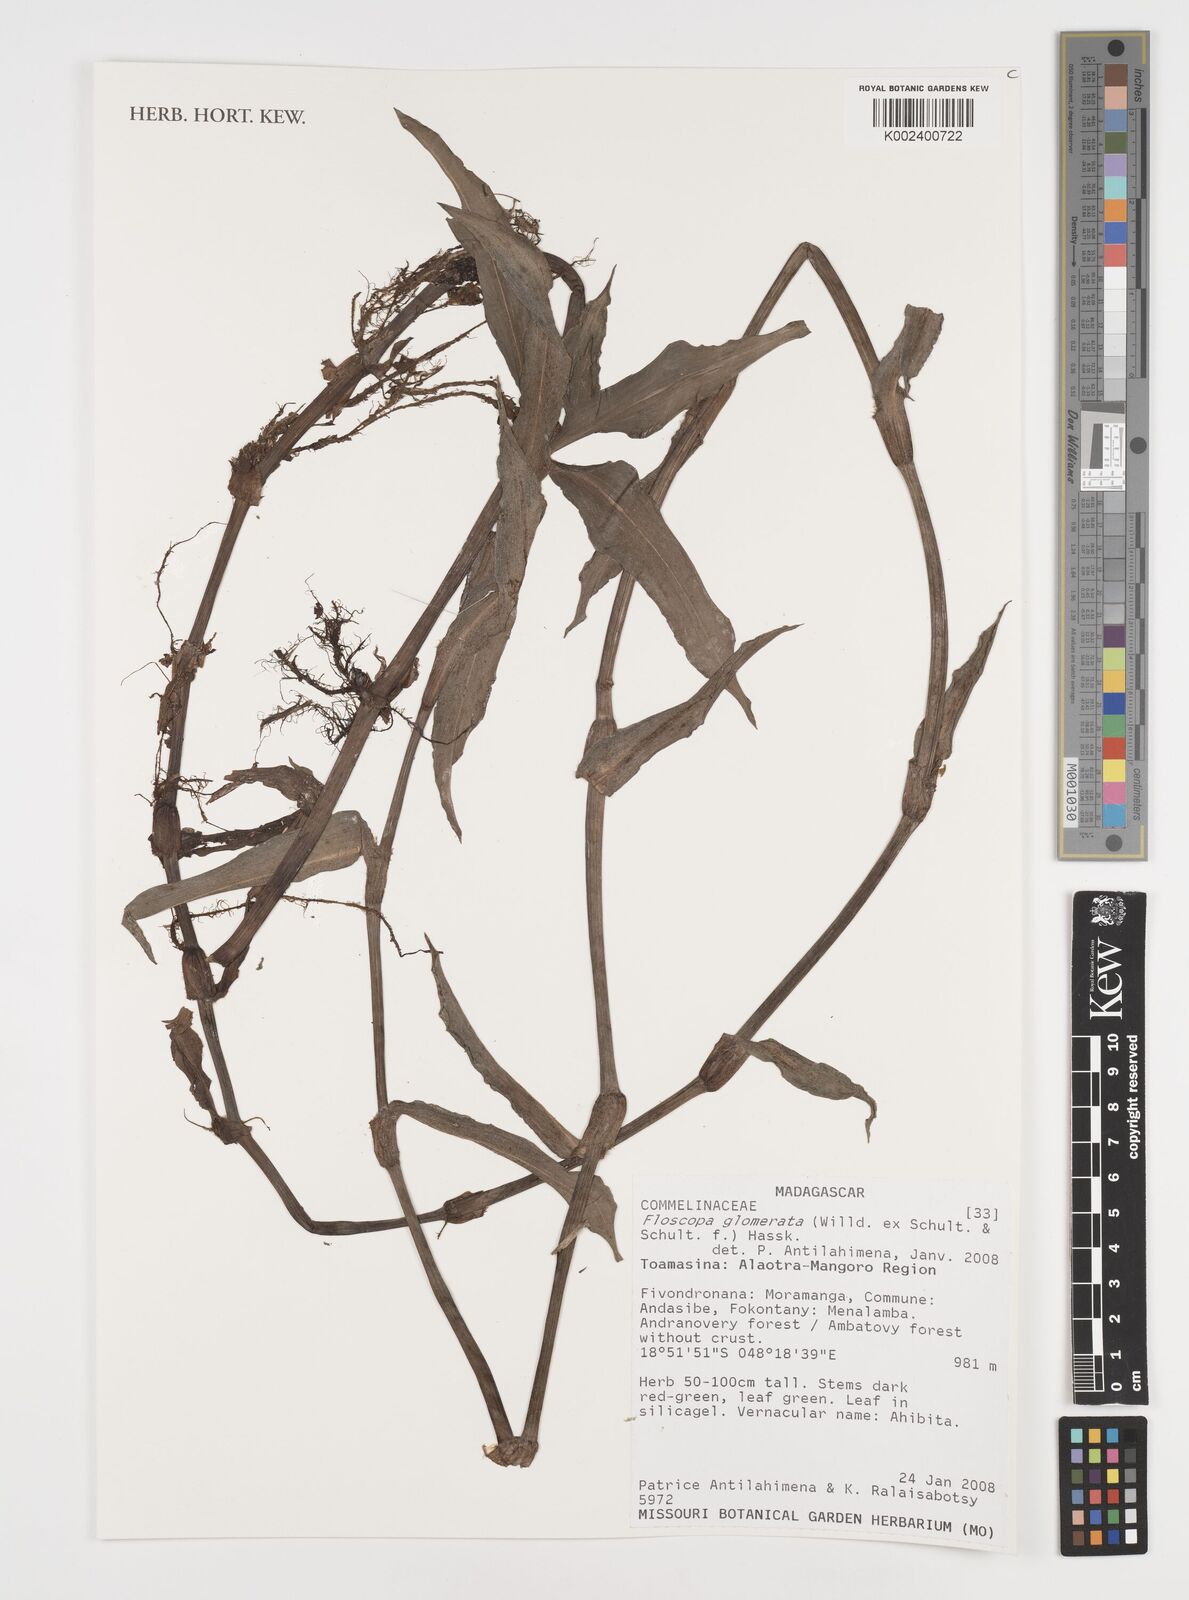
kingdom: Plantae
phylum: Tracheophyta
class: Liliopsida
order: Commelinales
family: Commelinaceae
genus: Floscopa
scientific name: Floscopa glomerata
